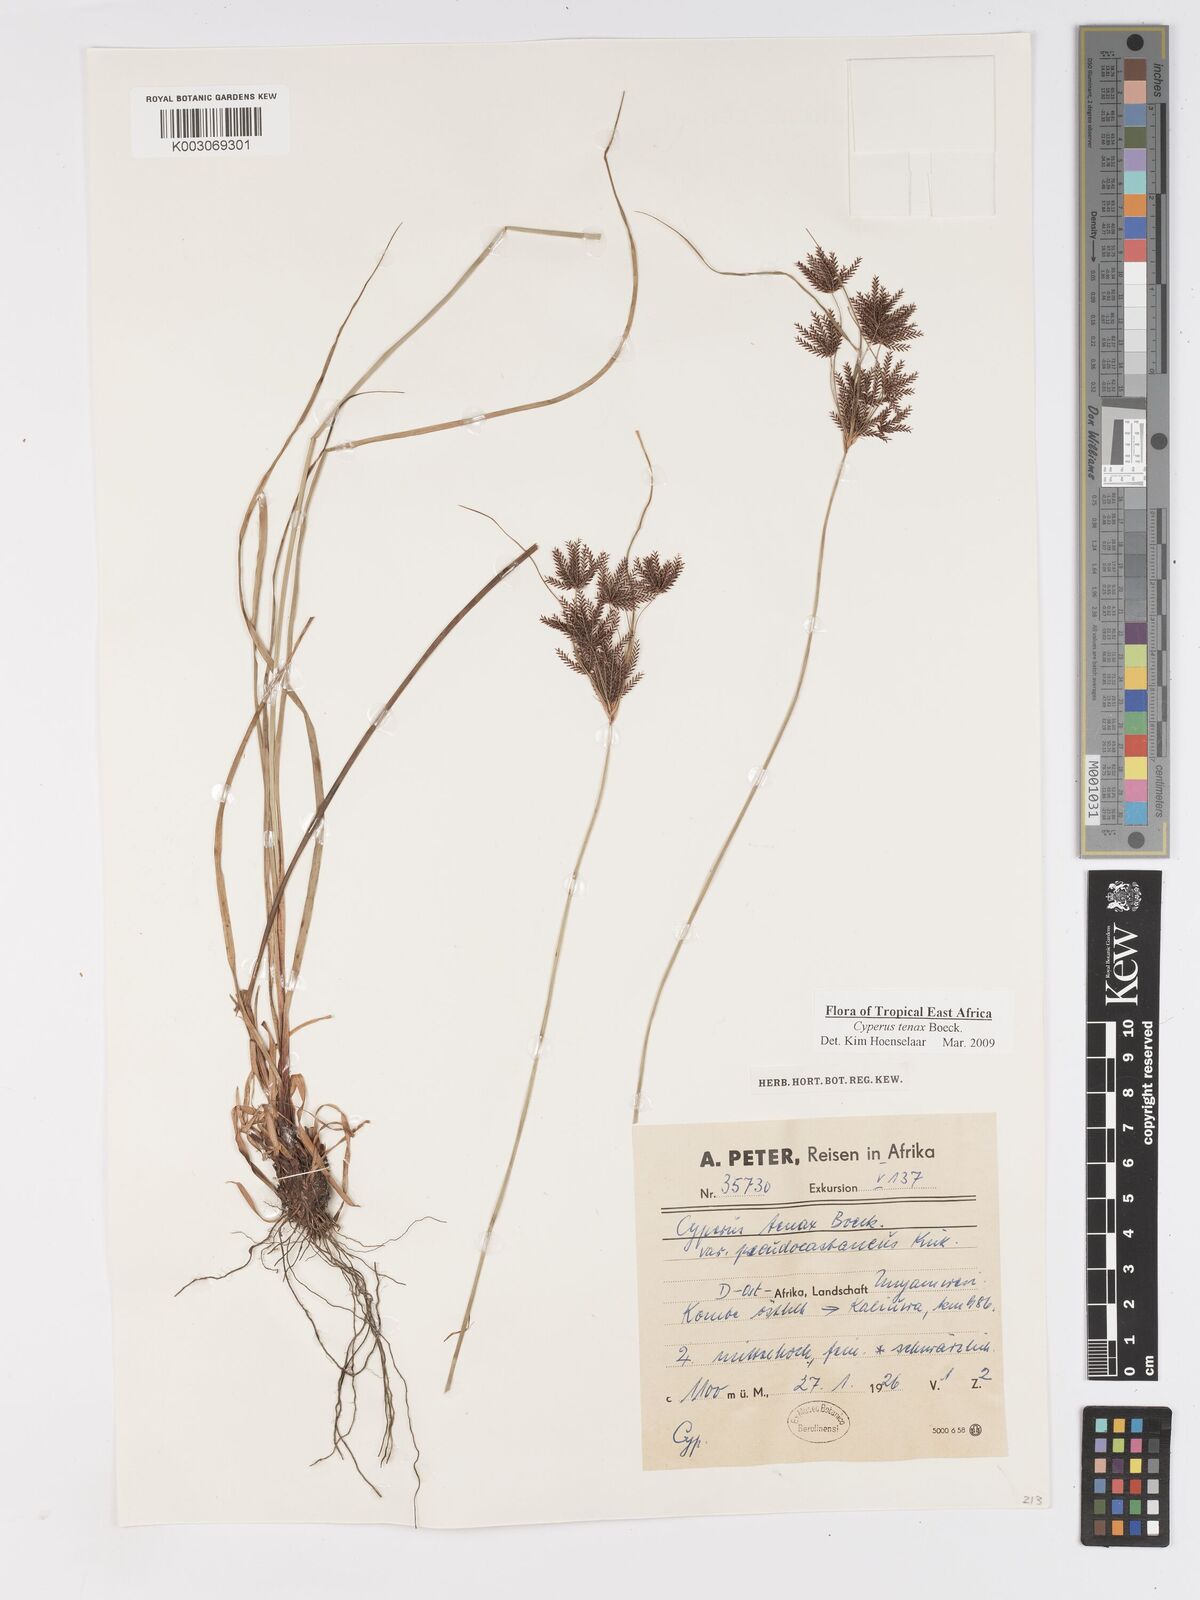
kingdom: Plantae
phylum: Tracheophyta
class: Liliopsida
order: Poales
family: Cyperaceae
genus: Cyperus
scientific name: Cyperus tenax
